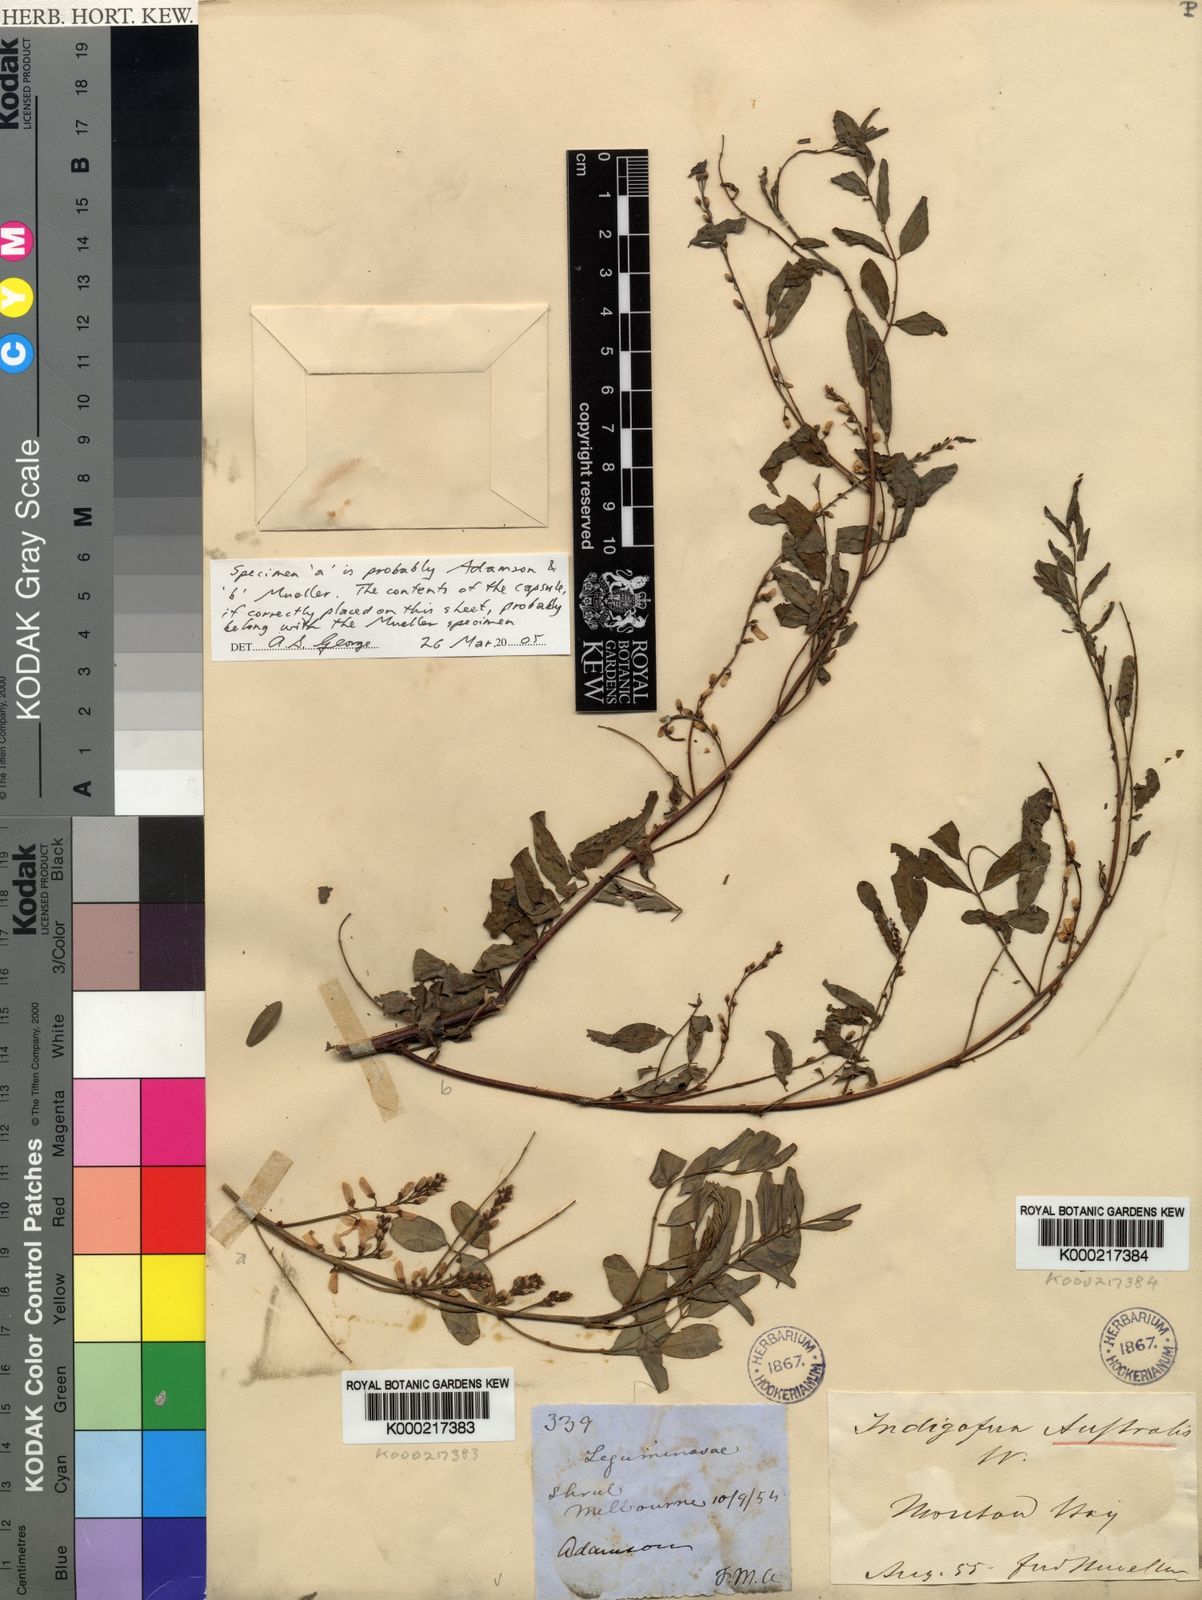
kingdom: Plantae
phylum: Tracheophyta
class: Magnoliopsida
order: Fabales
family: Fabaceae
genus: Indigofera
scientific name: Indigofera australis
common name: Australian indigo
